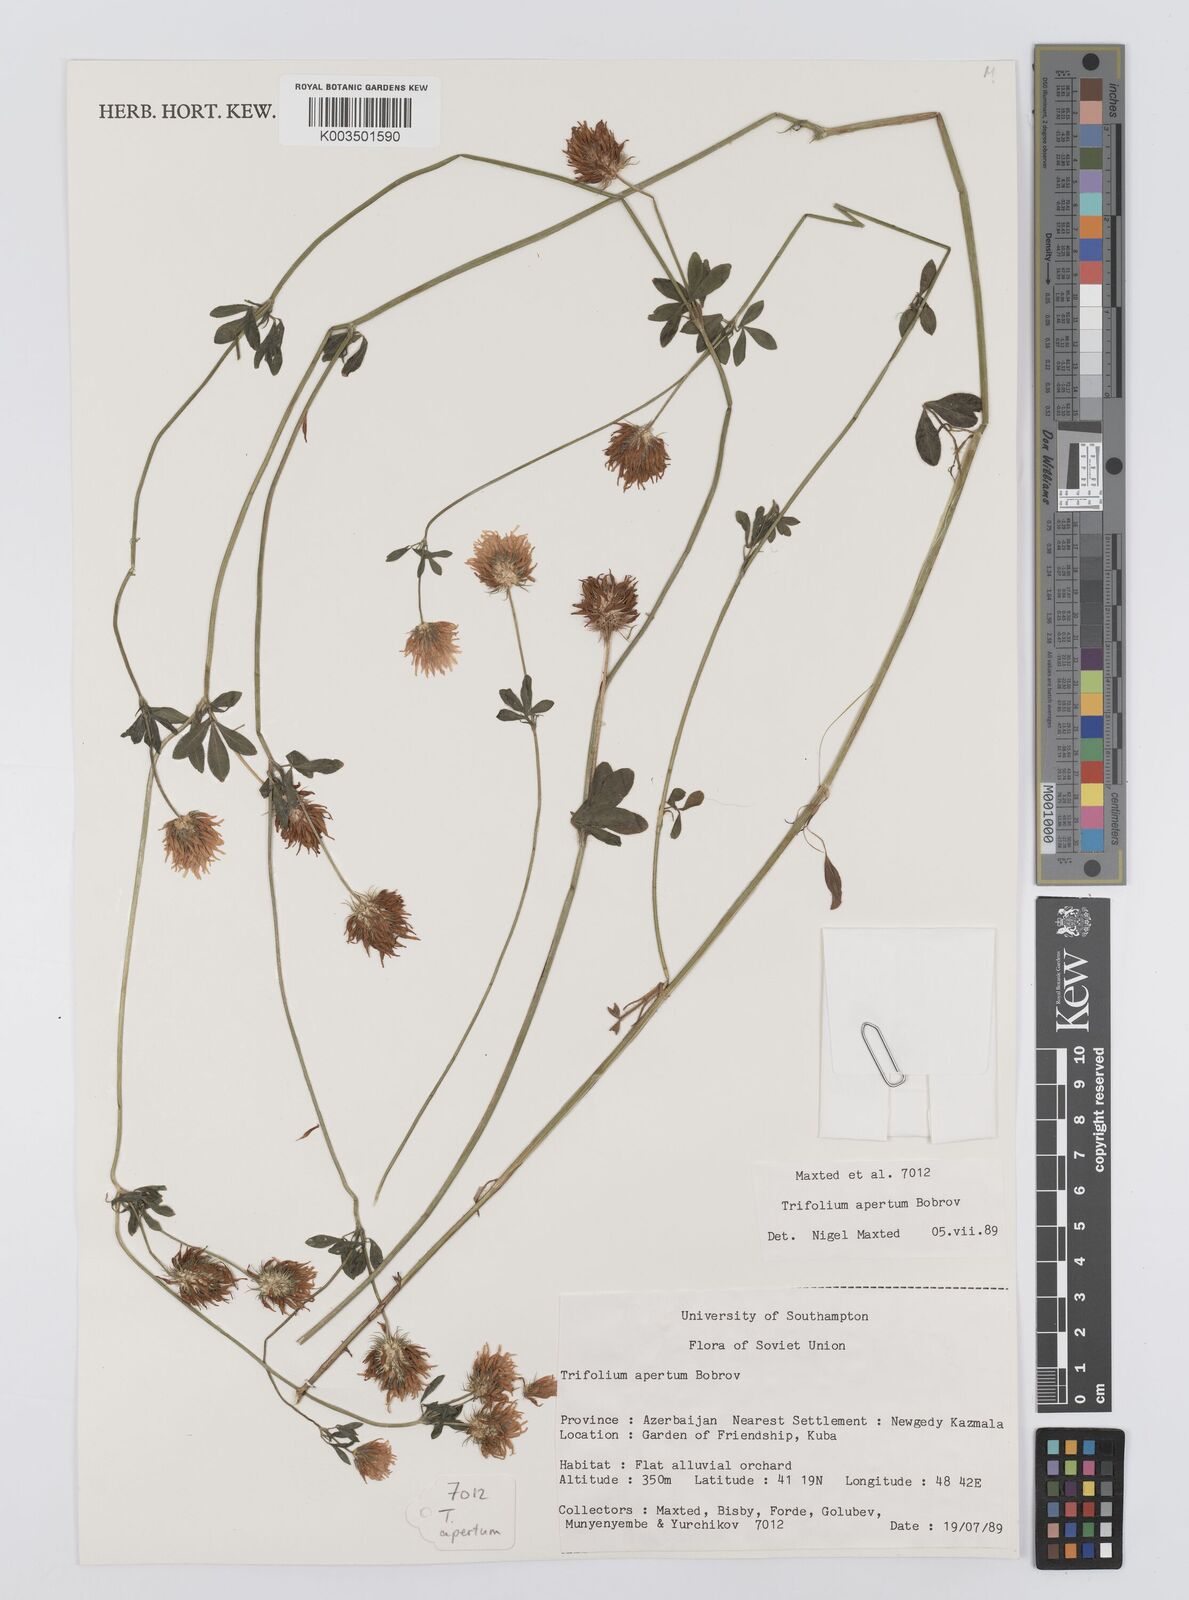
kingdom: Plantae
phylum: Tracheophyta
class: Magnoliopsida
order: Fabales
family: Fabaceae
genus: Trifolium
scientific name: Trifolium apertum
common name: Open clover
